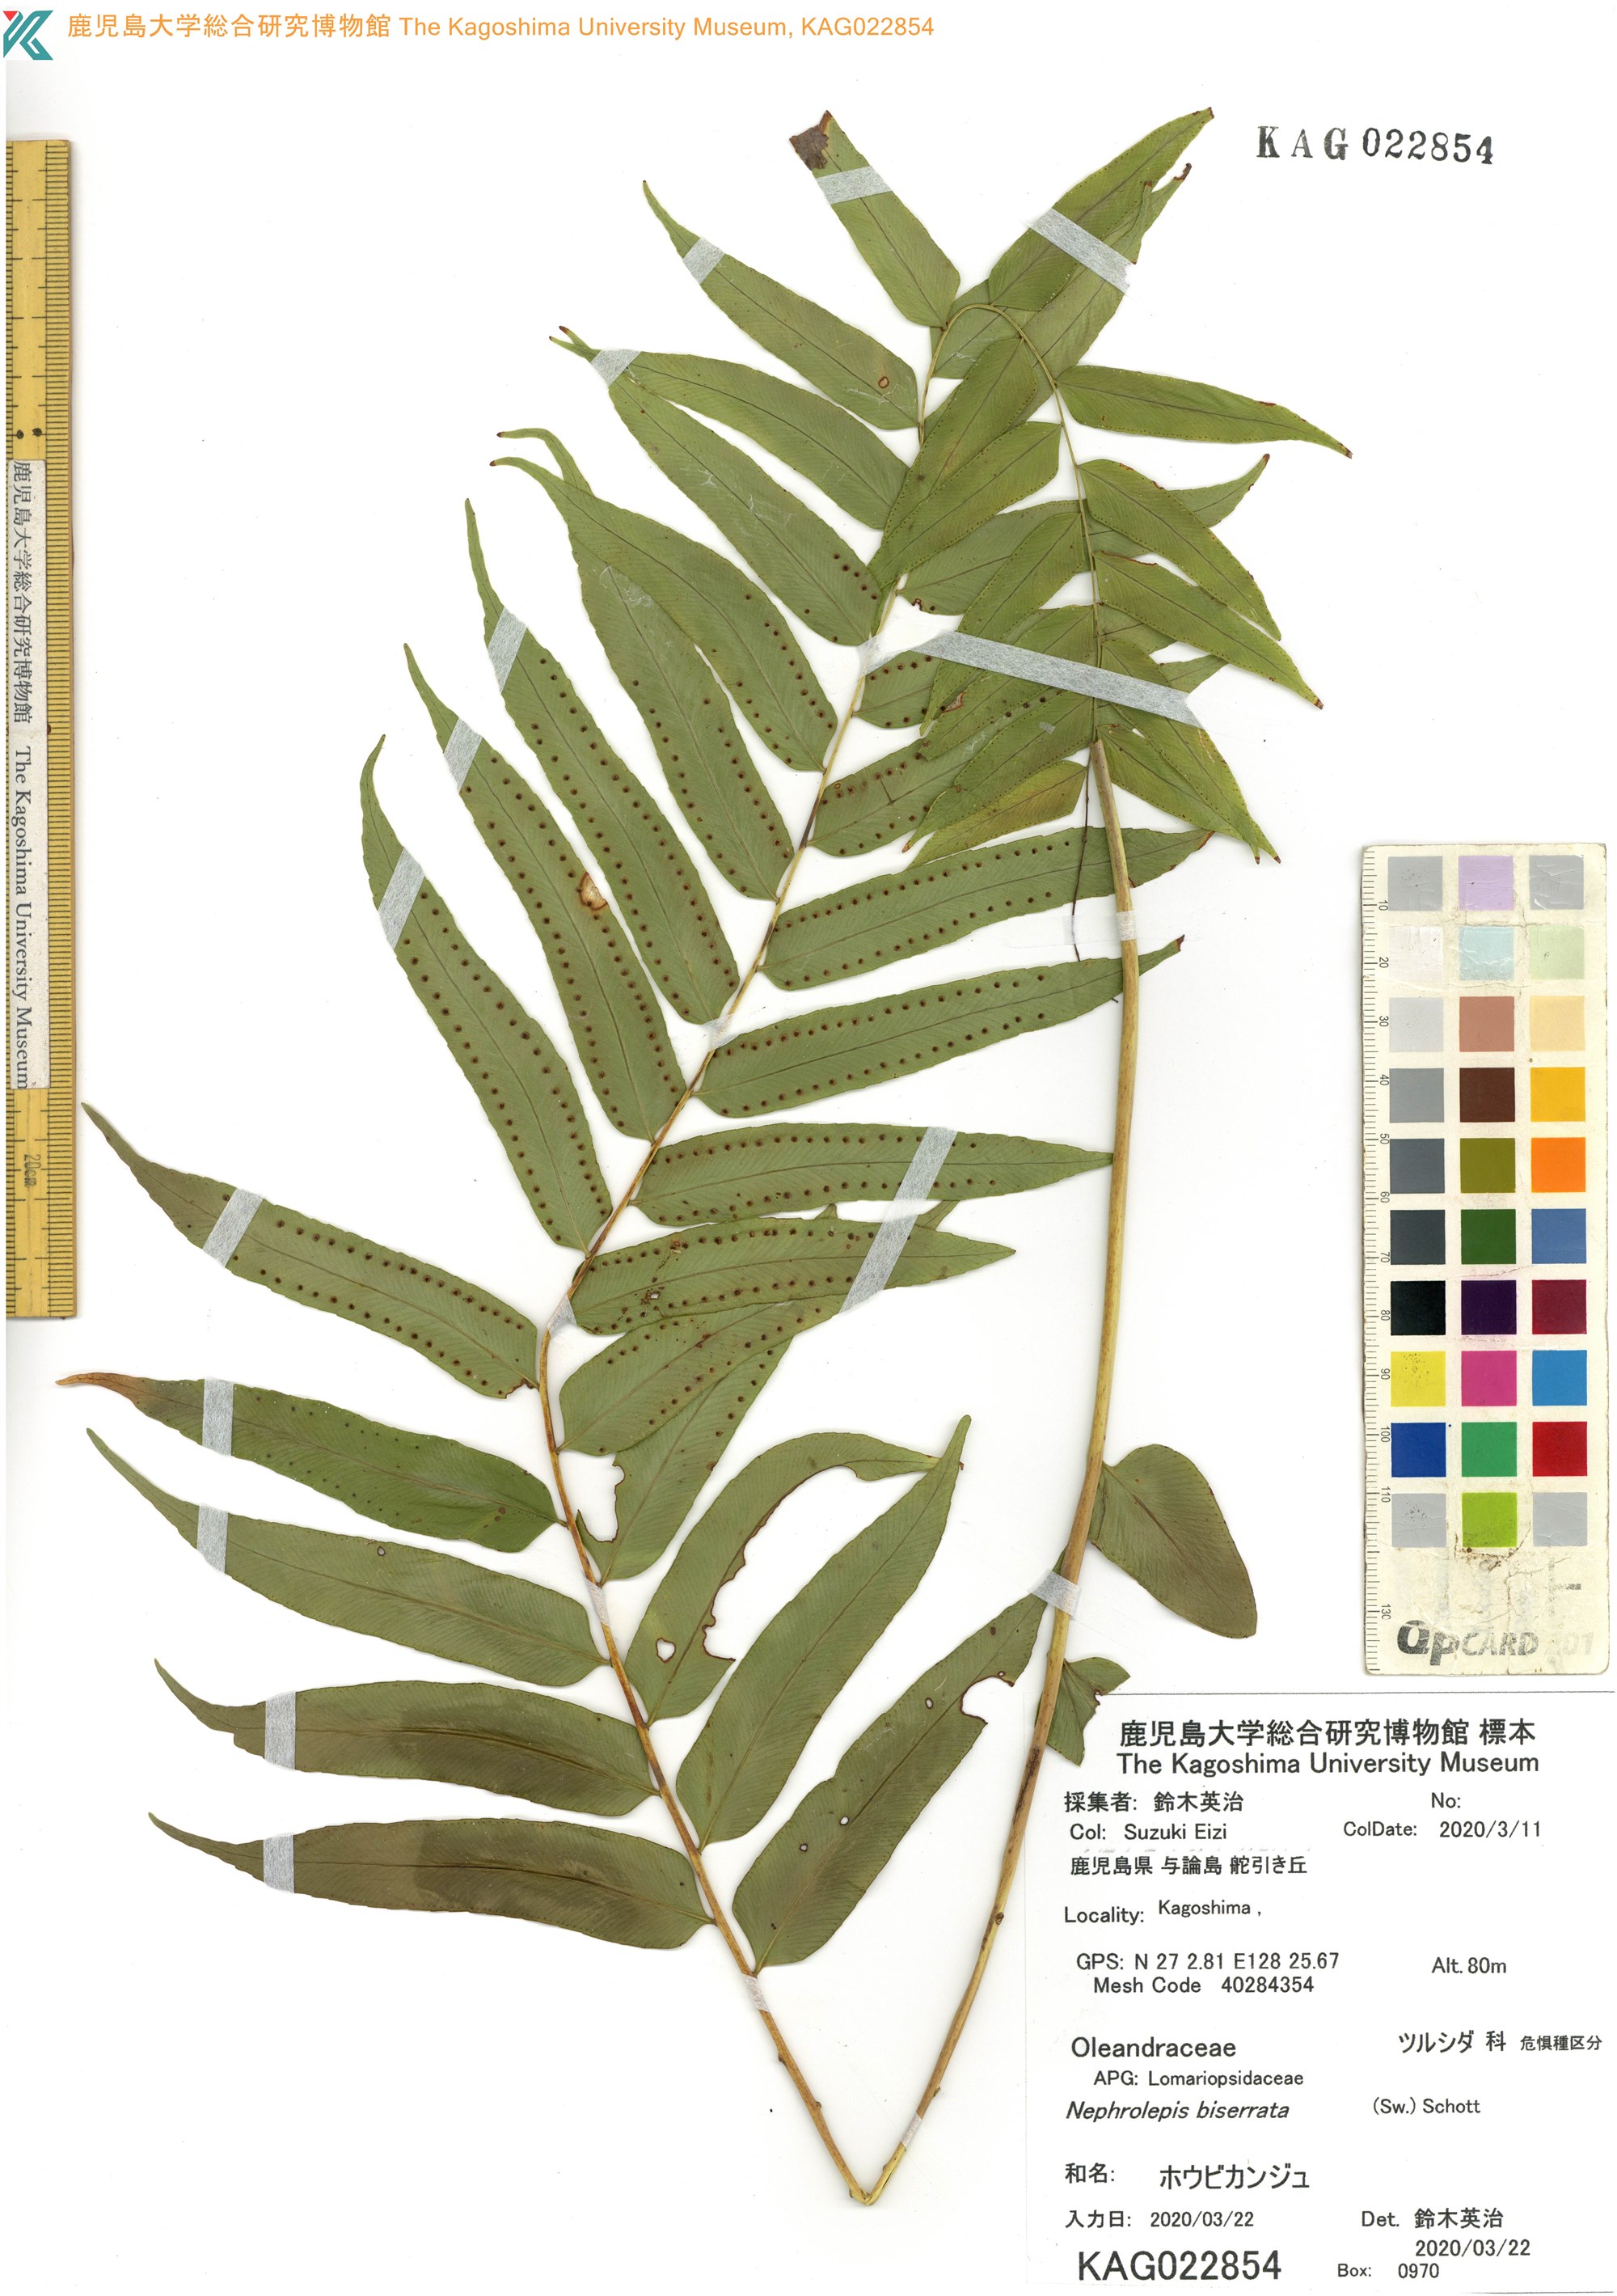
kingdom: Plantae
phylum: Tracheophyta
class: Polypodiopsida
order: Polypodiales
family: Nephrolepidaceae
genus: Nephrolepis
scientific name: Nephrolepis biserrata
